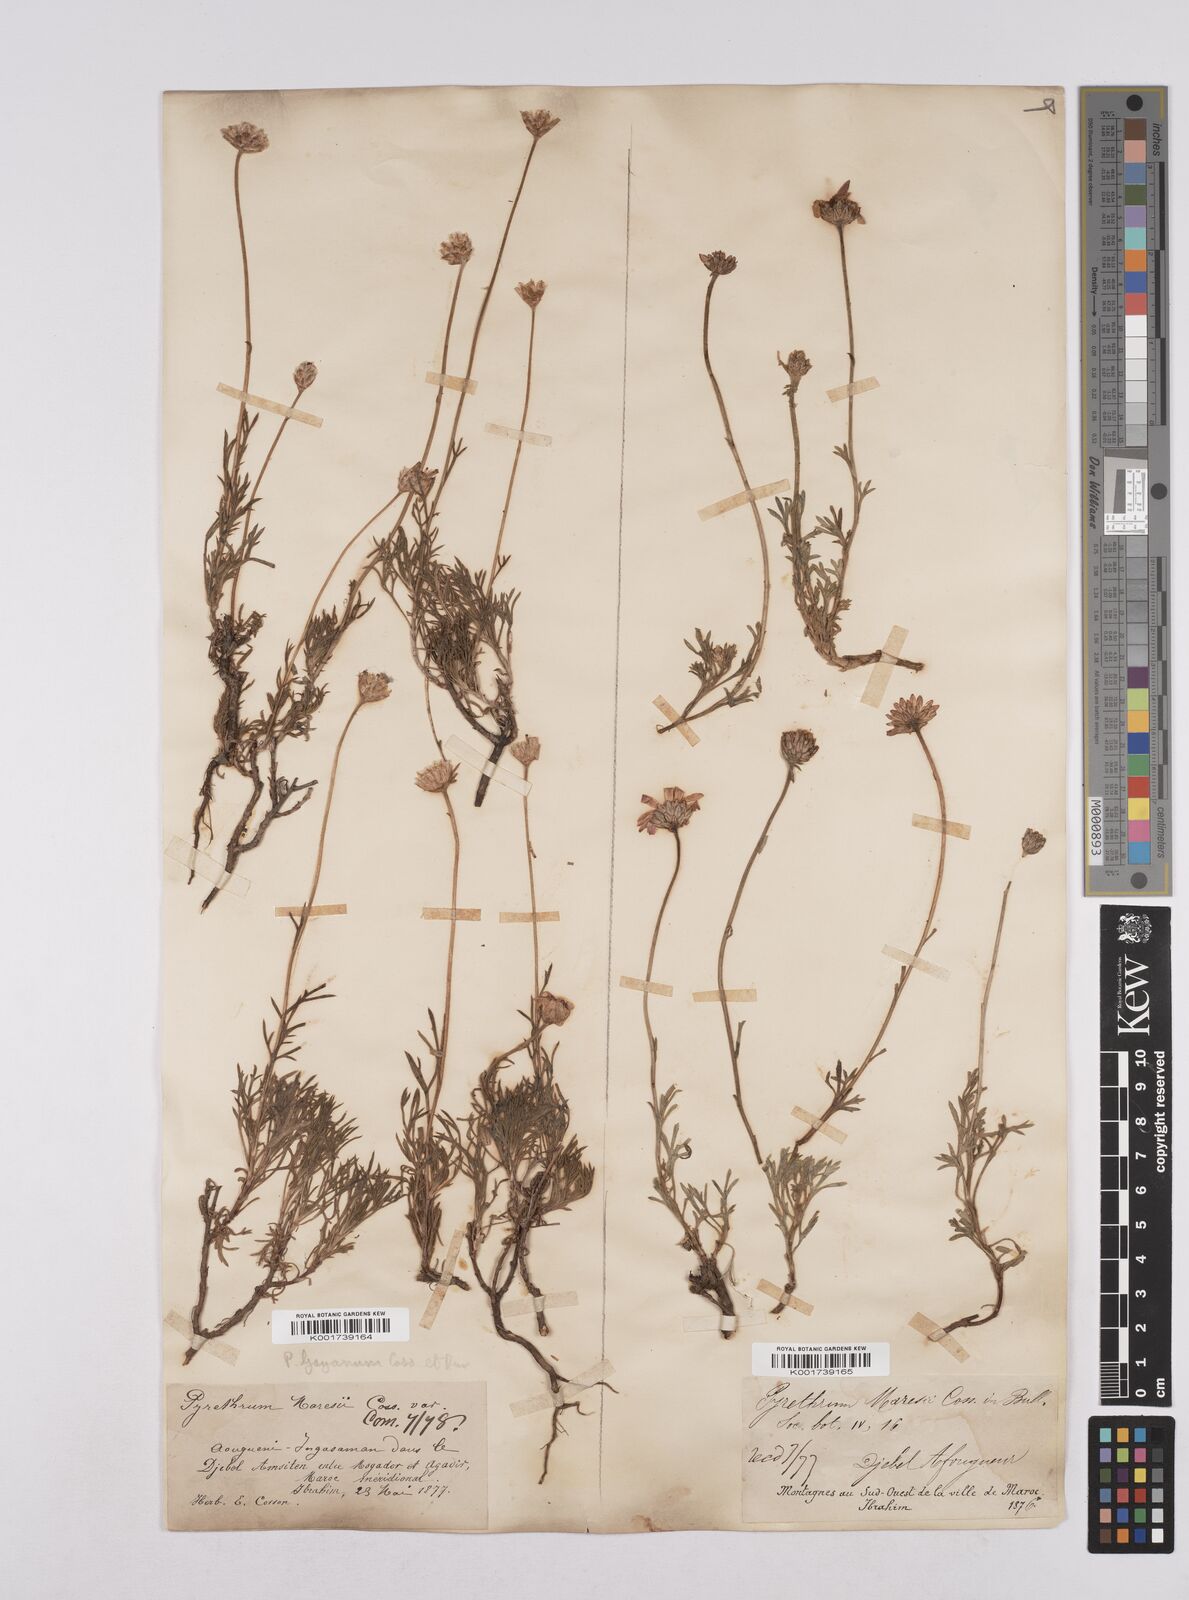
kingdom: Plantae
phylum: Tracheophyta
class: Magnoliopsida
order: Asterales
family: Asteraceae
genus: Rhodanthemum
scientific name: Rhodanthemum depressum
